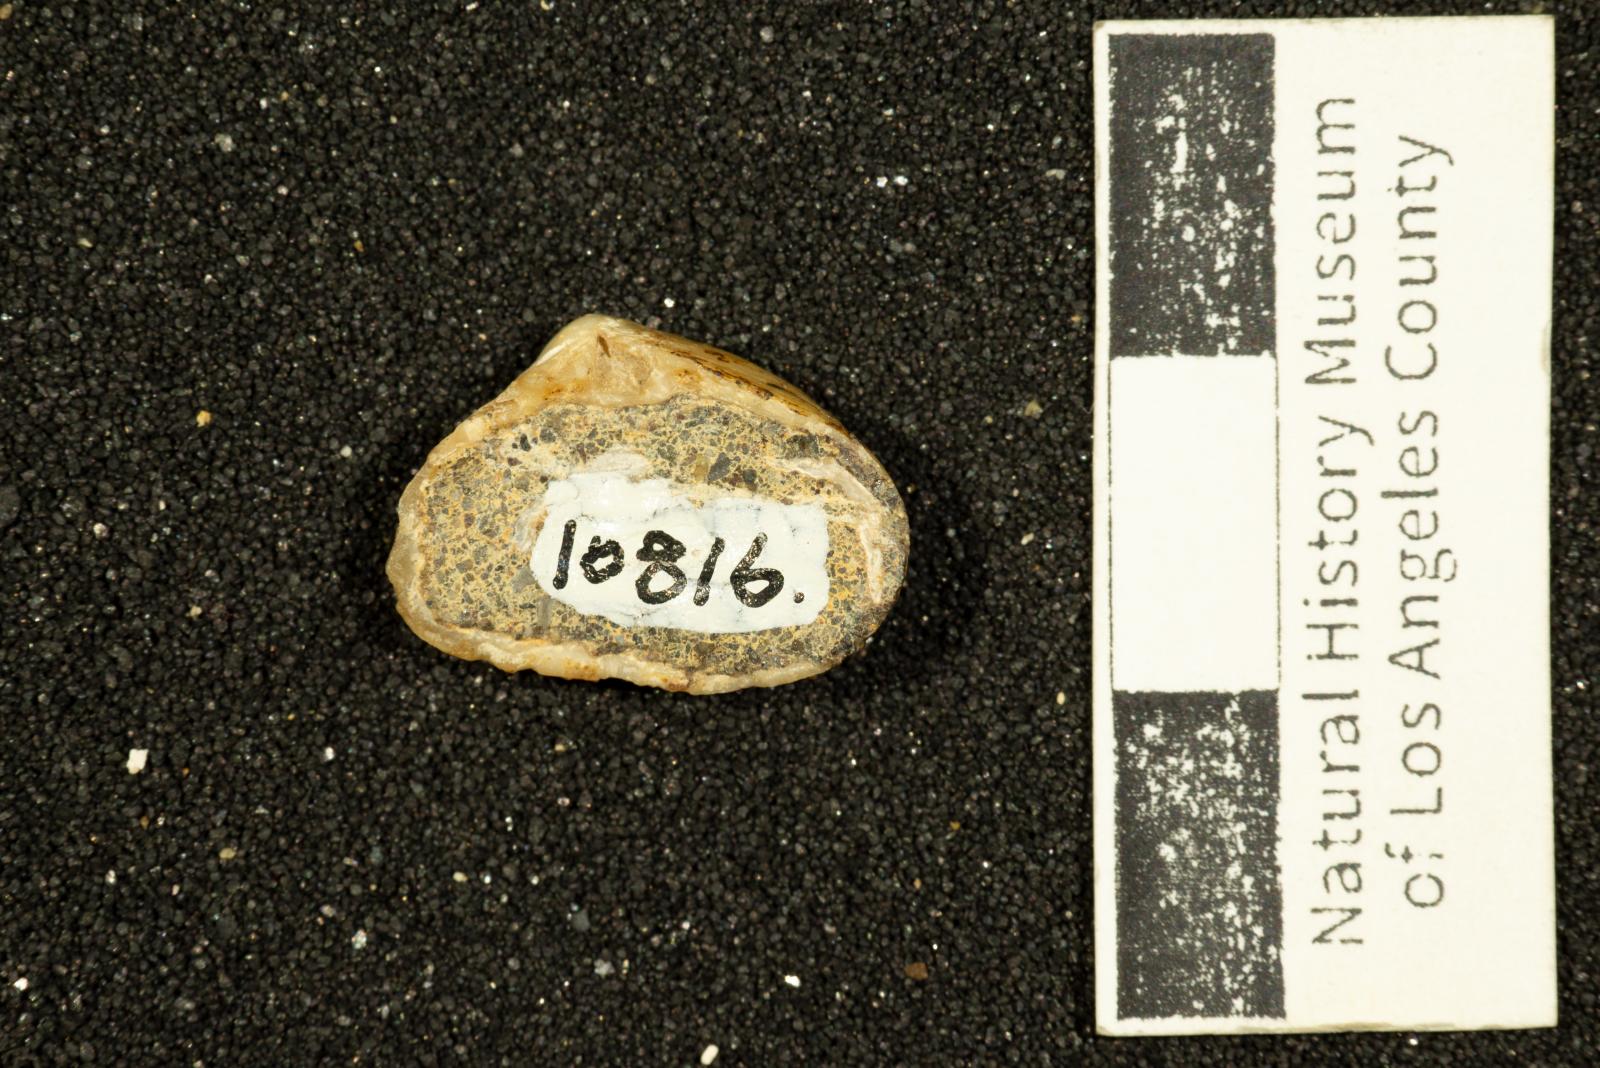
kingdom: Animalia
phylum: Mollusca
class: Bivalvia
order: Myida
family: Corbulidae
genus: Excorbula
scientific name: Excorbula parkyi
